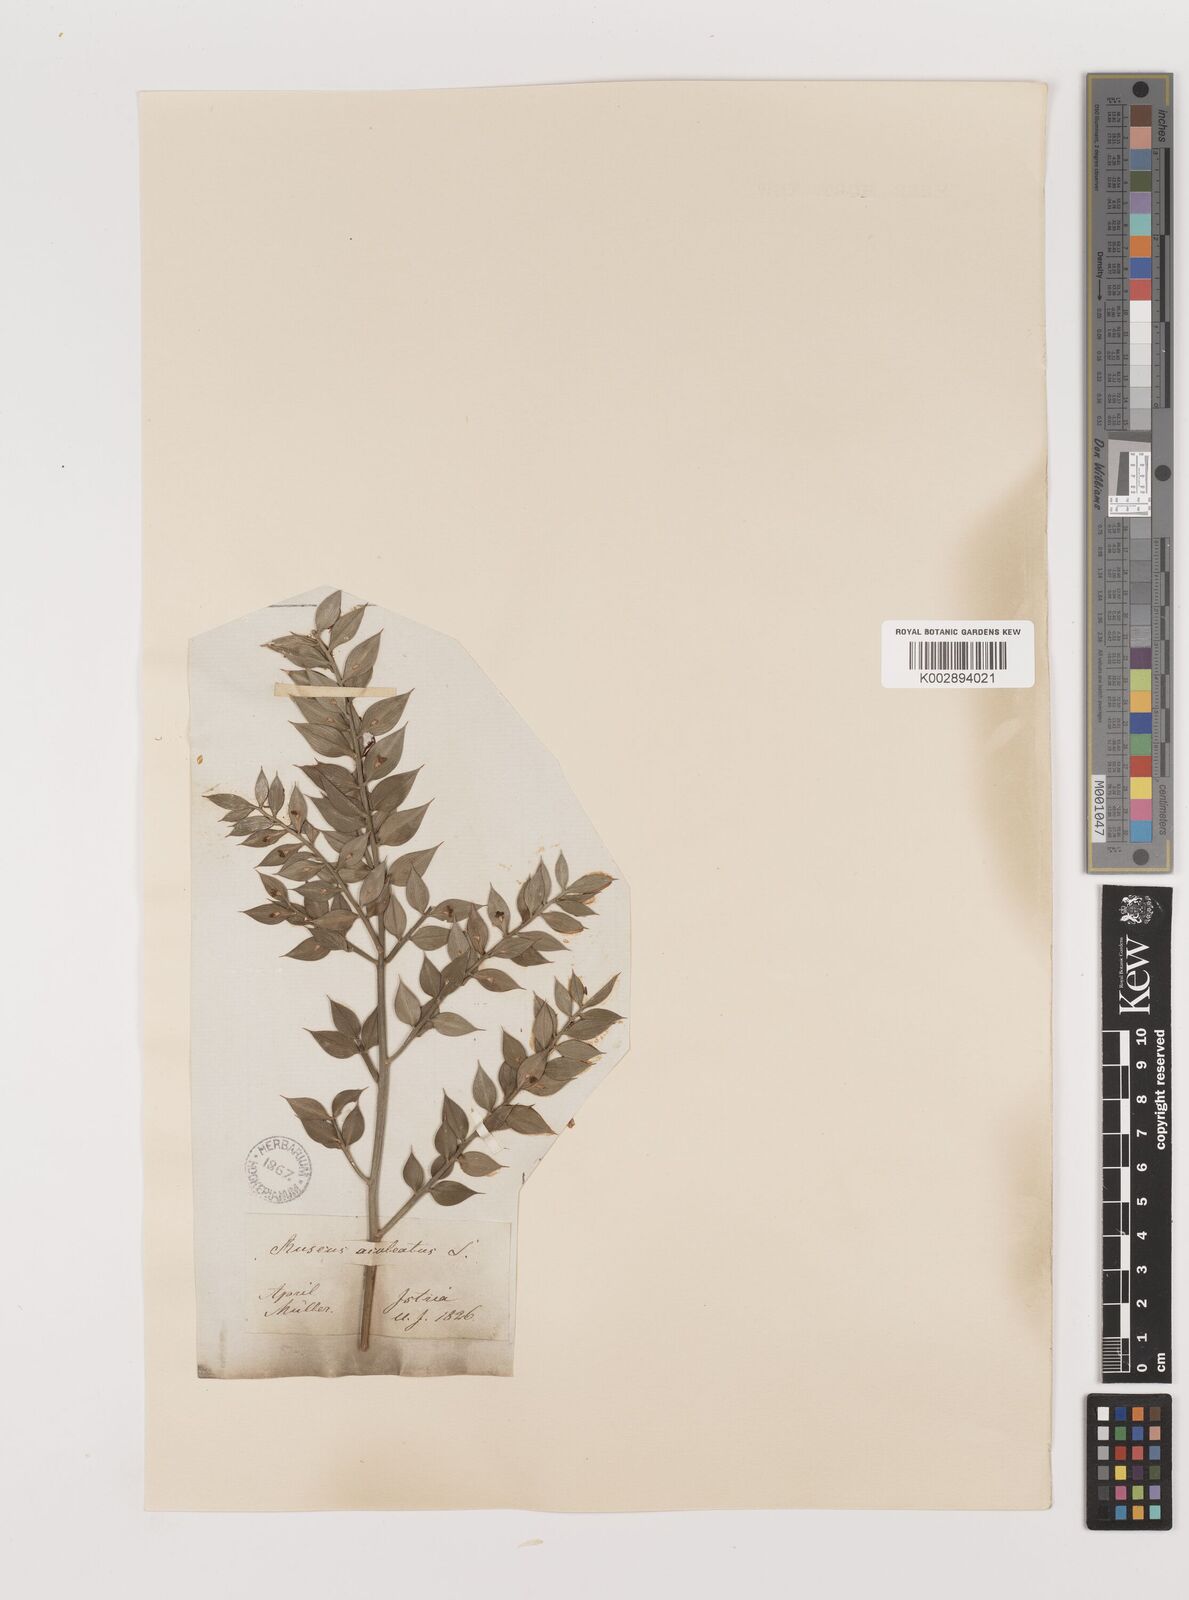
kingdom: Plantae
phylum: Tracheophyta
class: Liliopsida
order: Asparagales
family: Asparagaceae
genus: Ruscus
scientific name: Ruscus aculeatus
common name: Butcher's-broom
